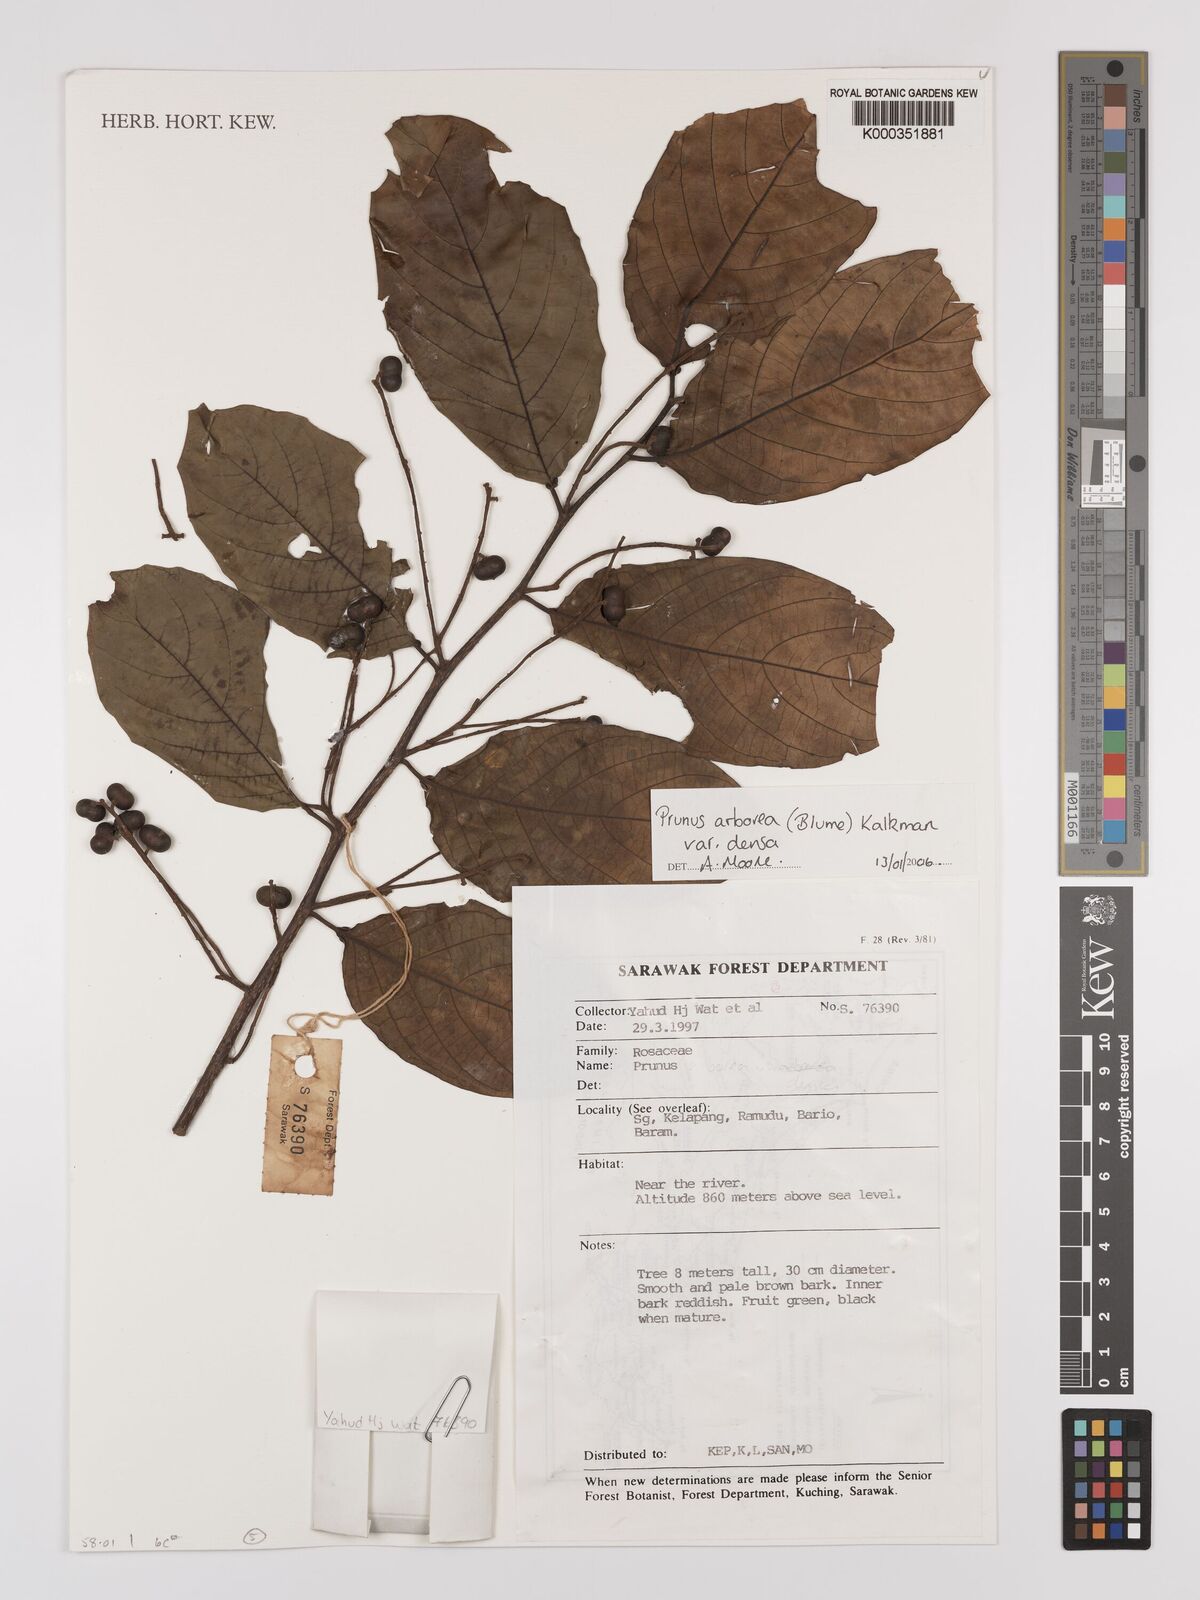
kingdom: Plantae
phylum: Tracheophyta
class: Magnoliopsida
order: Rosales
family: Rosaceae
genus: Prunus
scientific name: Prunus arborea
